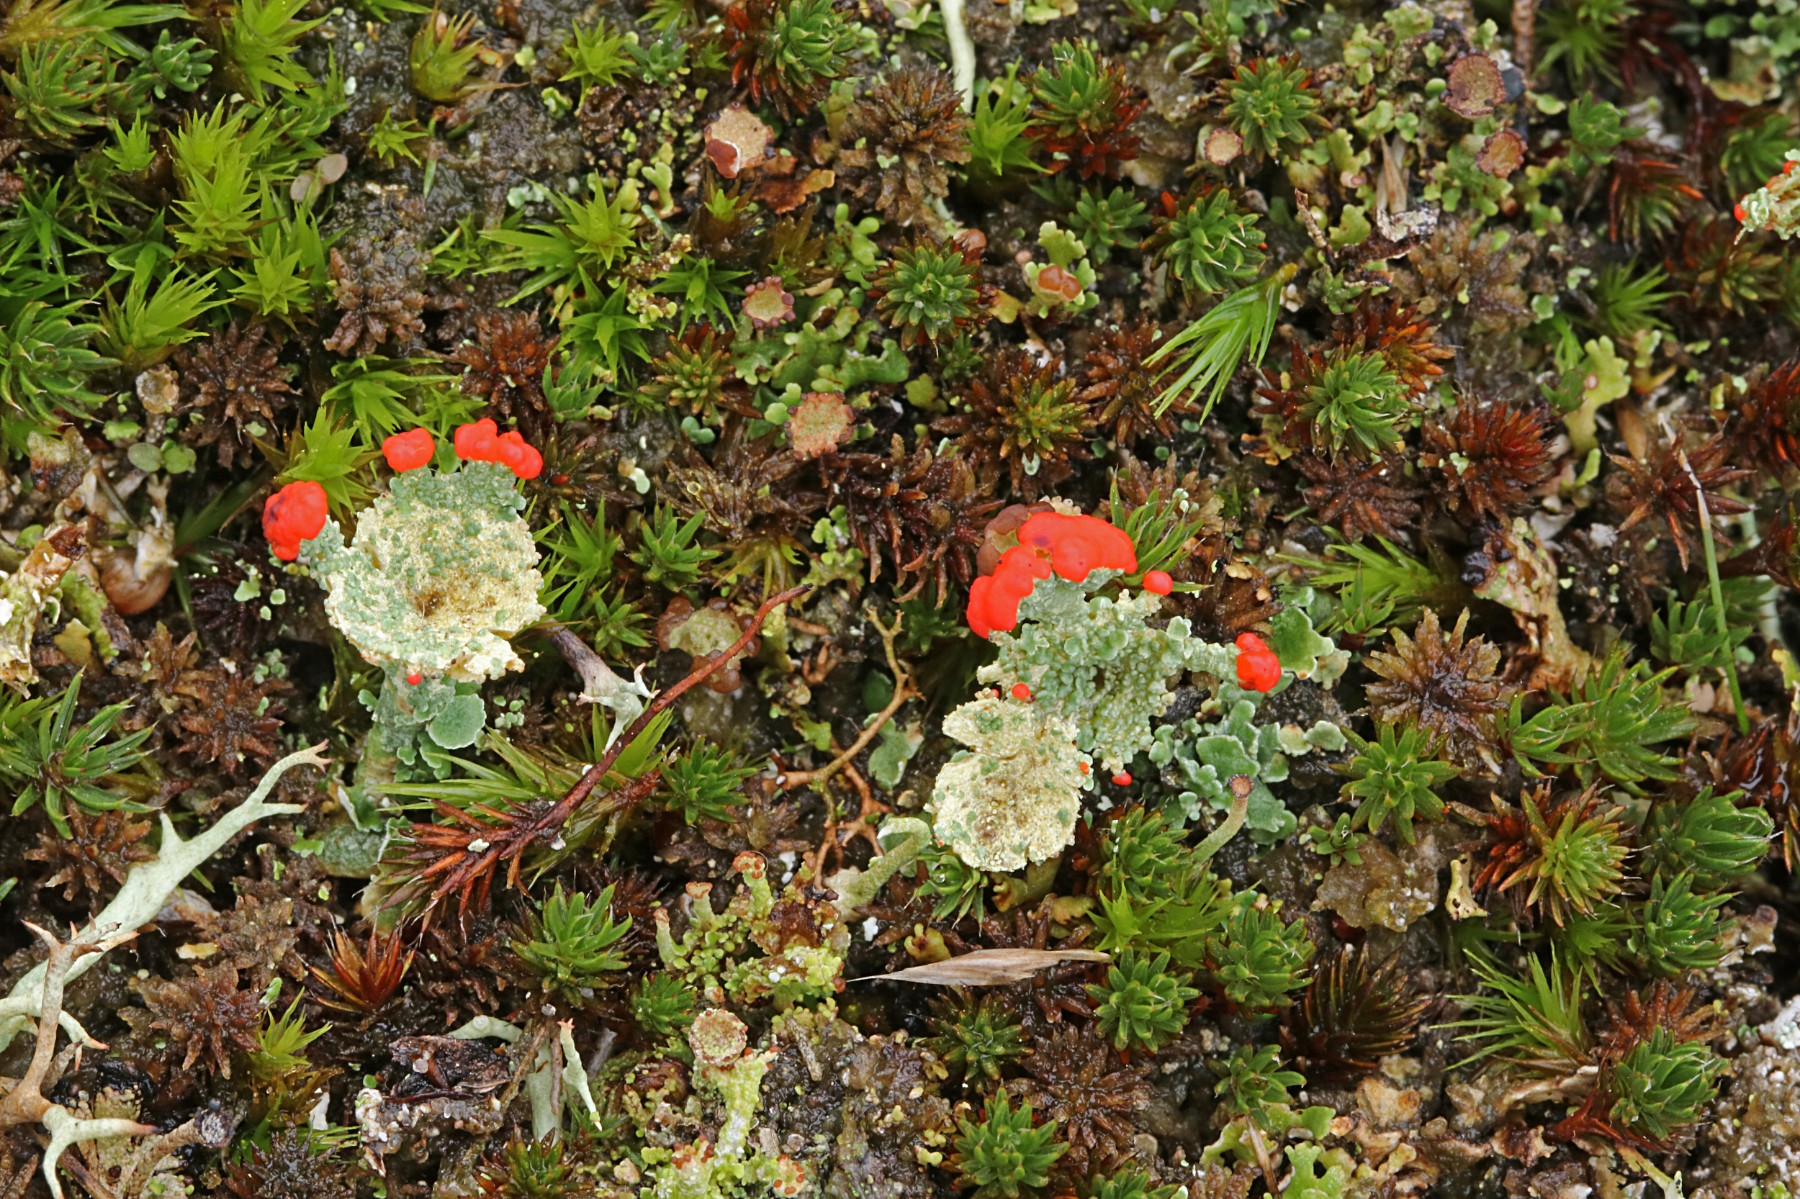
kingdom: Fungi
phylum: Ascomycota
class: Lecanoromycetes
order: Lecanorales
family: Cladoniaceae
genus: Cladonia
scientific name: Cladonia diversa
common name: rød bægerlav
